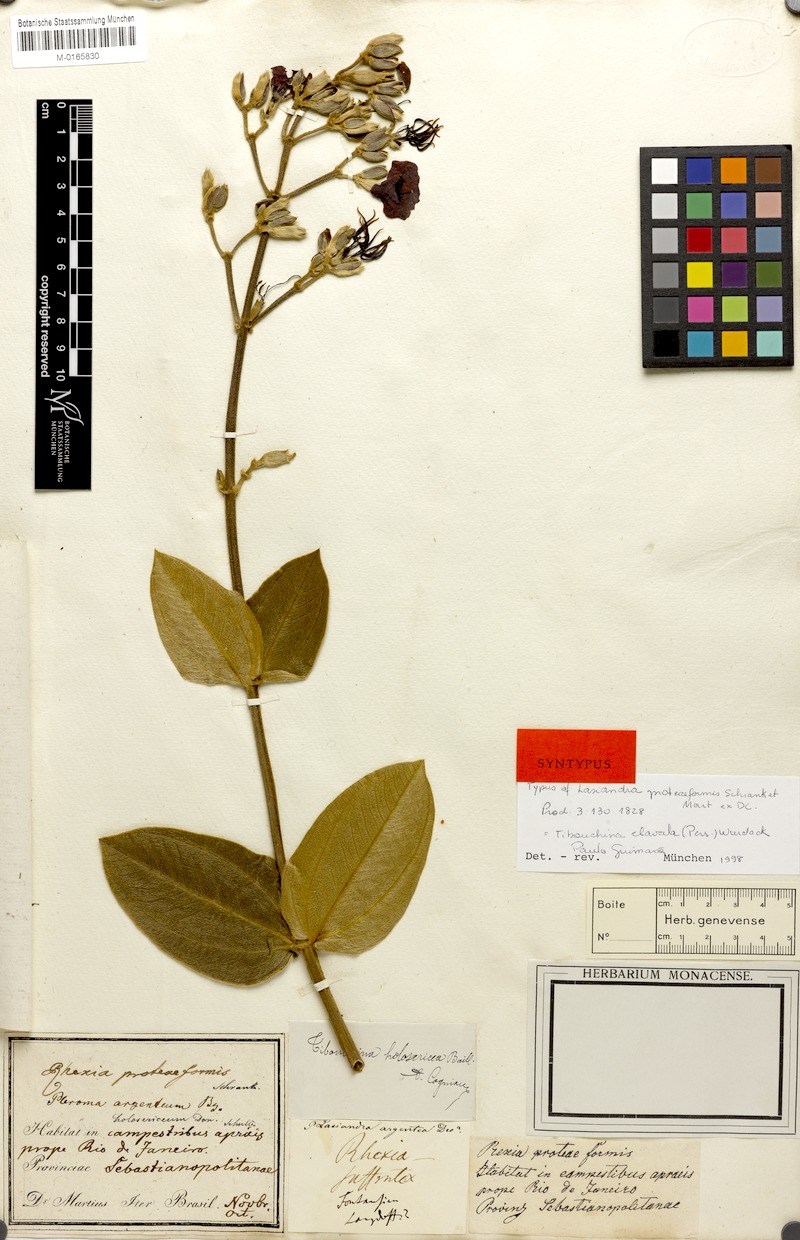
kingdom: Plantae
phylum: Tracheophyta
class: Magnoliopsida
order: Myrtales
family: Melastomataceae
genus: Pleroma
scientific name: Pleroma clavatum
